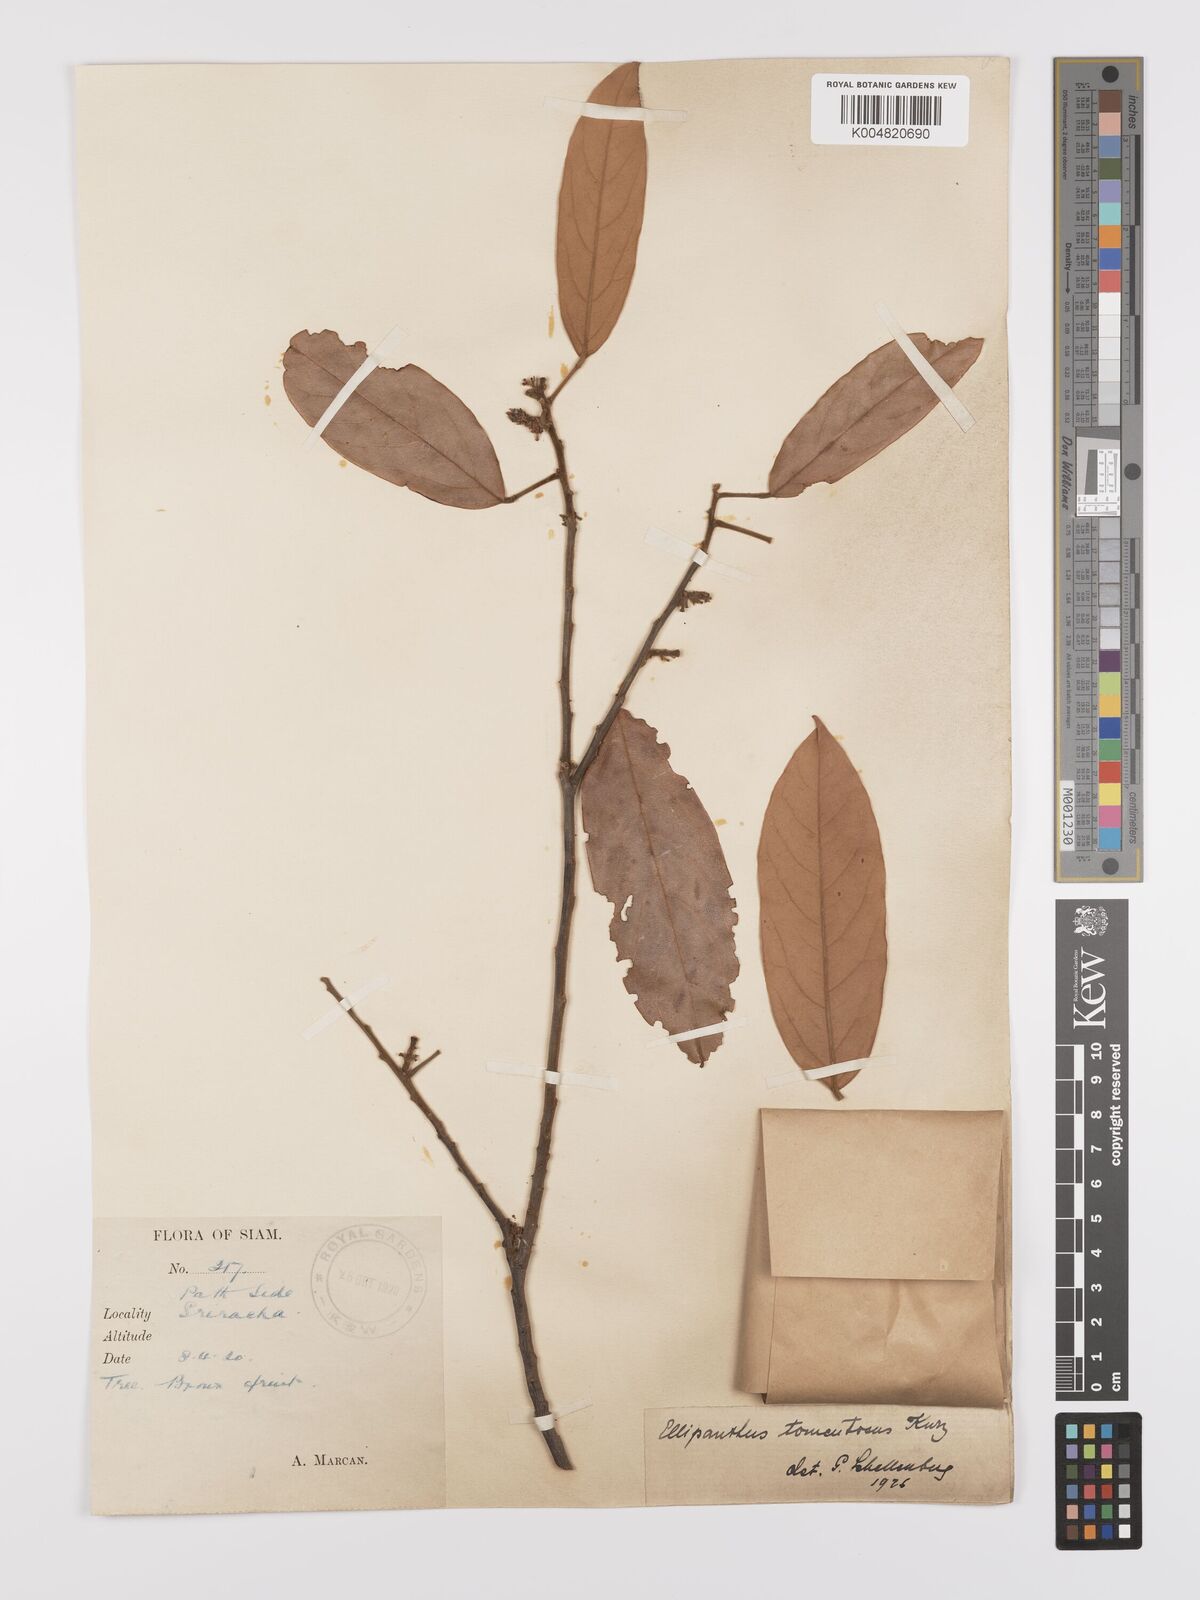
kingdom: Plantae
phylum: Tracheophyta
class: Magnoliopsida
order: Oxalidales
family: Connaraceae
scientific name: Connaraceae
